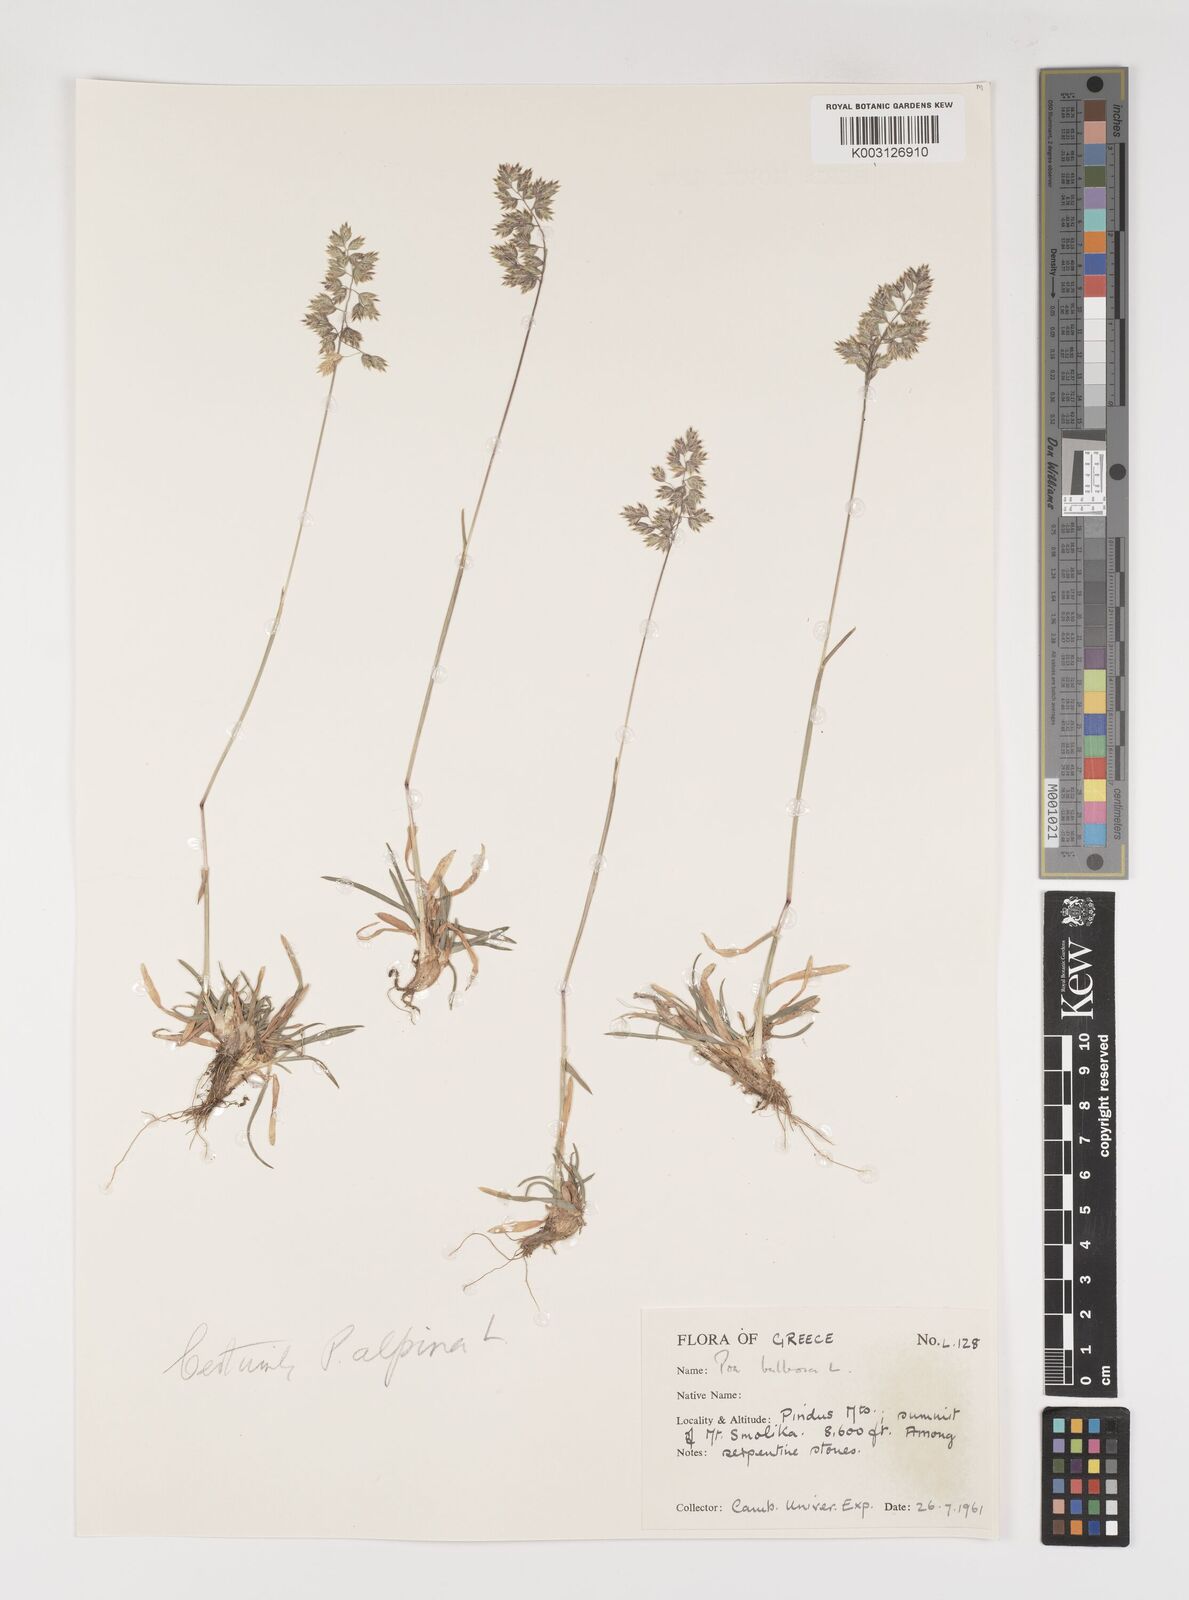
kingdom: Plantae
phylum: Tracheophyta
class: Liliopsida
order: Poales
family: Poaceae
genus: Poa
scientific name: Poa bulbosa
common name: Bulbous bluegrass
